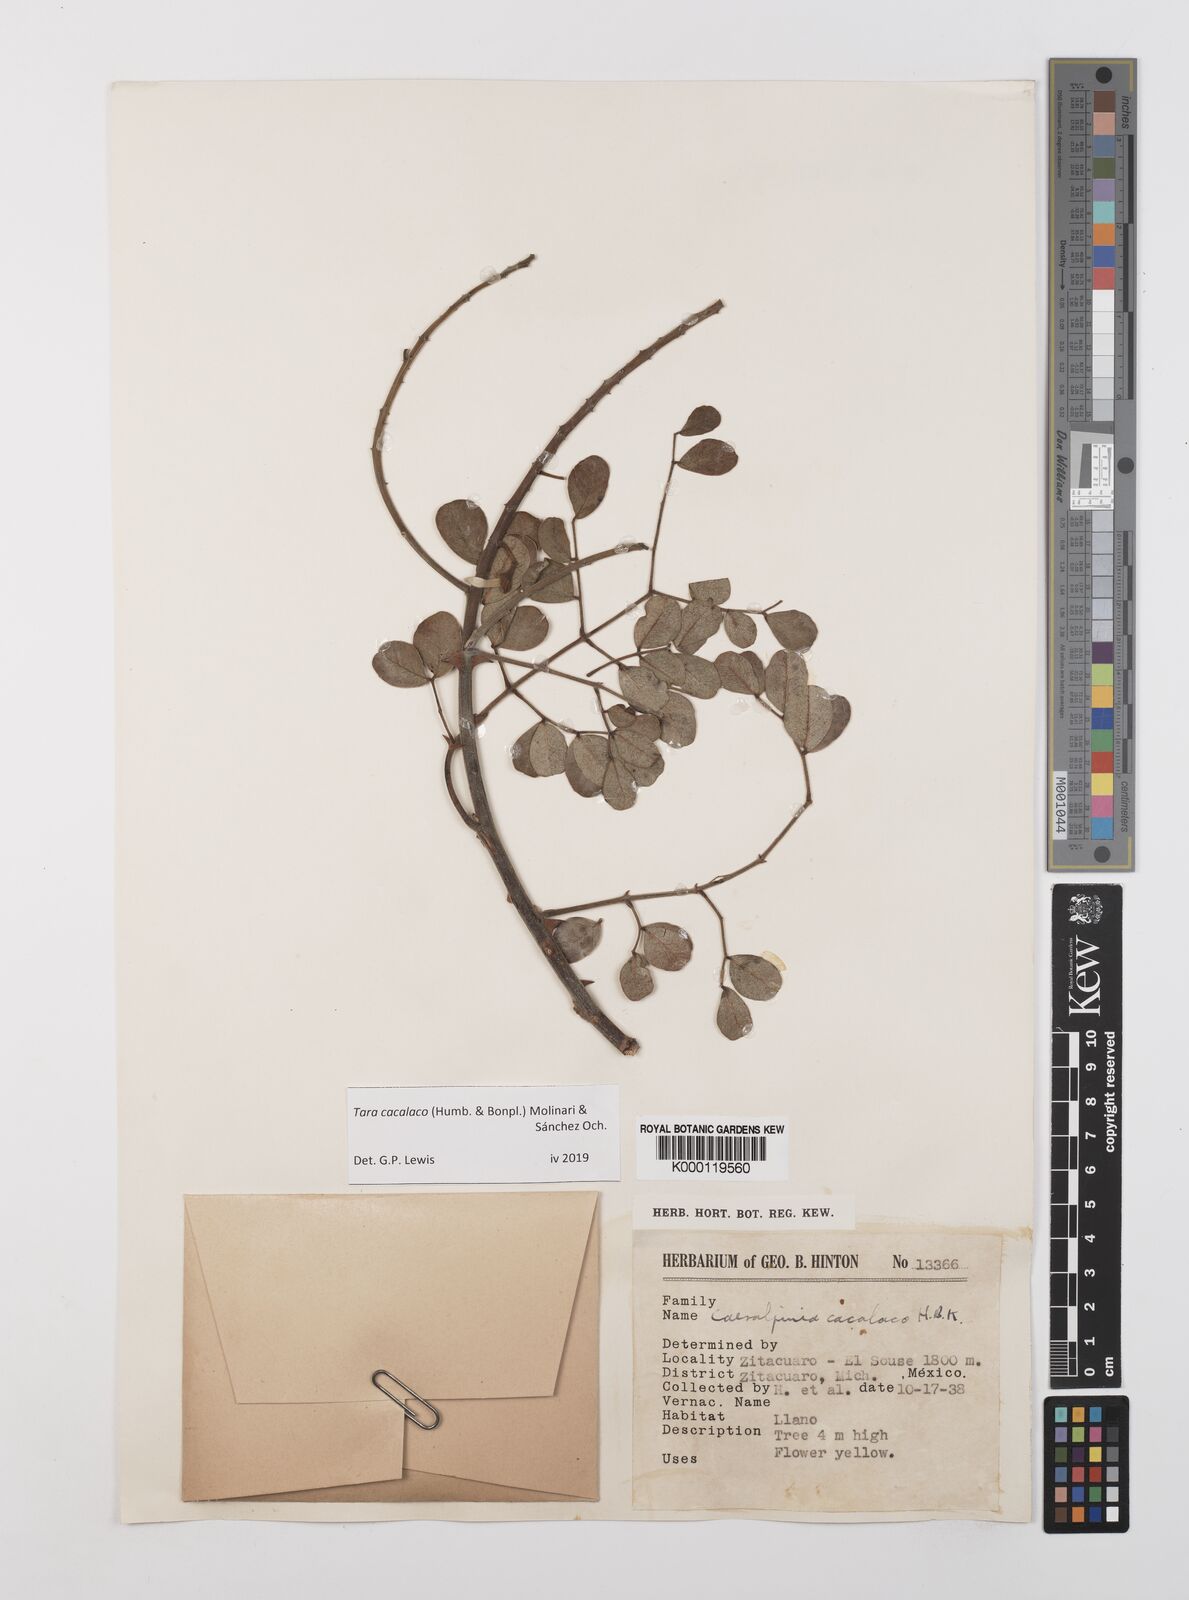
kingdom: Plantae
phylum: Tracheophyta
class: Magnoliopsida
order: Fabales
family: Fabaceae
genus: Tara
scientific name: Tara cacalaco
